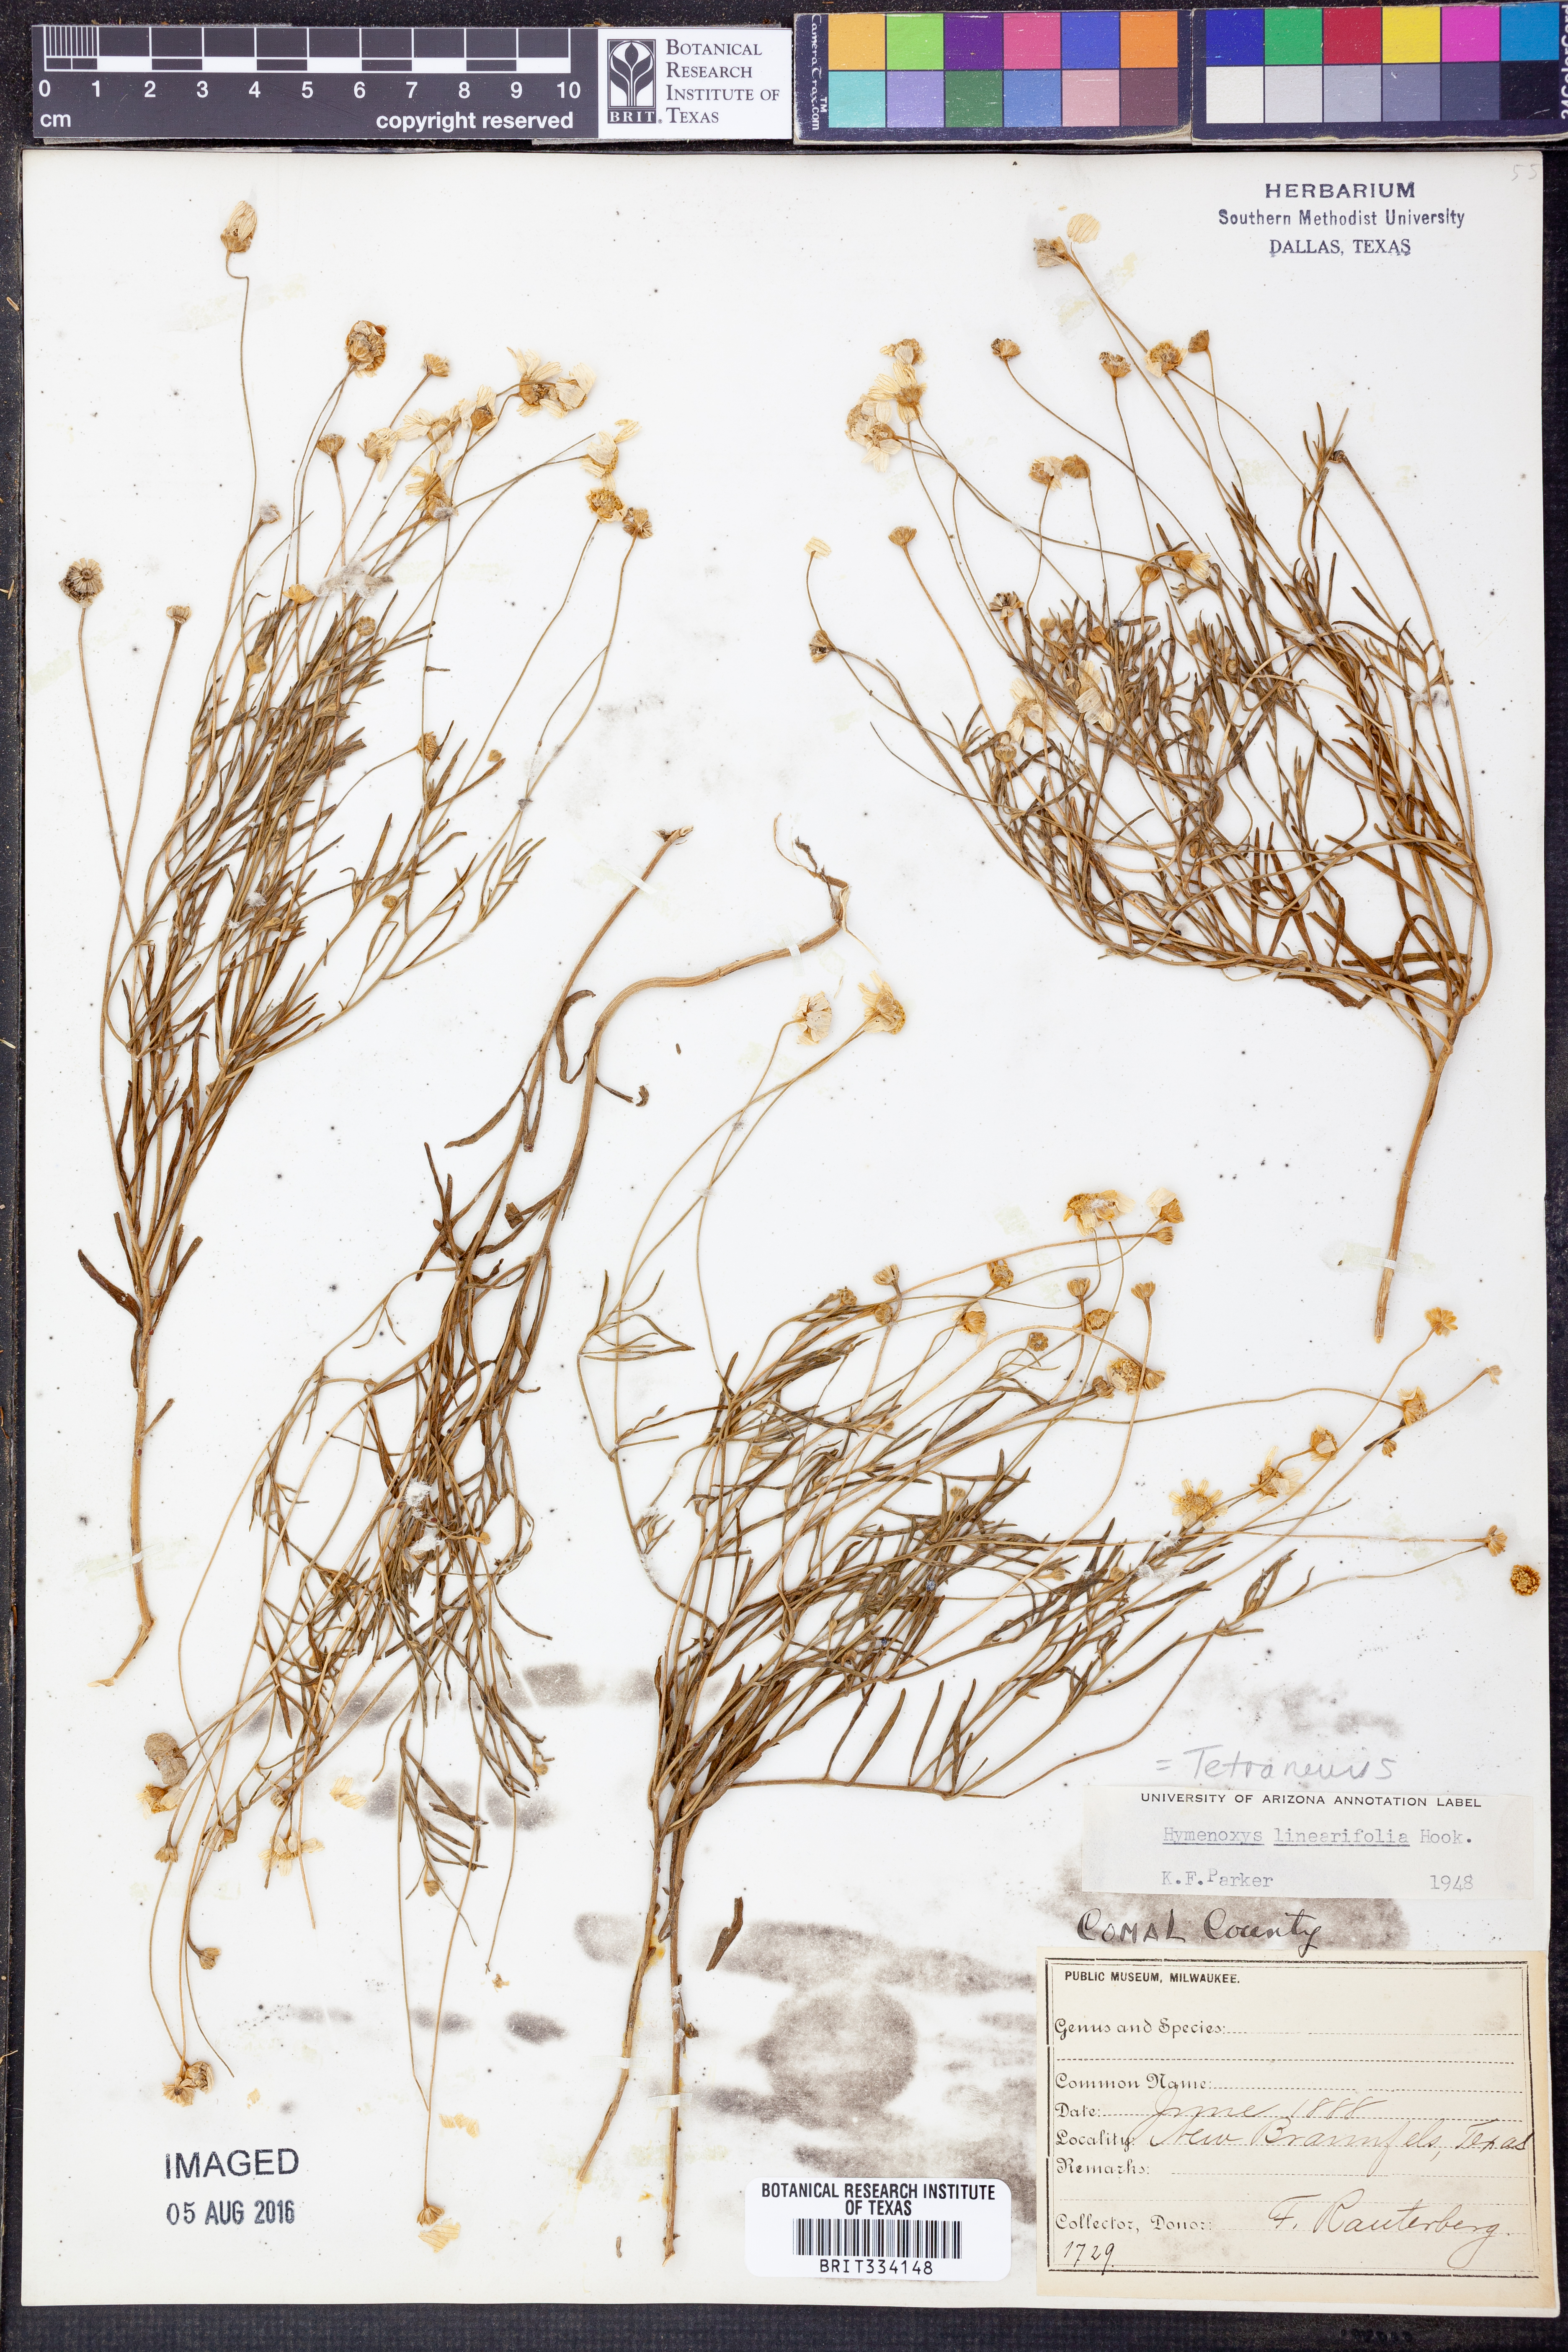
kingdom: Plantae
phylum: Tracheophyta
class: Magnoliopsida
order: Asterales
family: Asteraceae
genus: Tetraneuris
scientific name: Tetraneuris linearifolia
